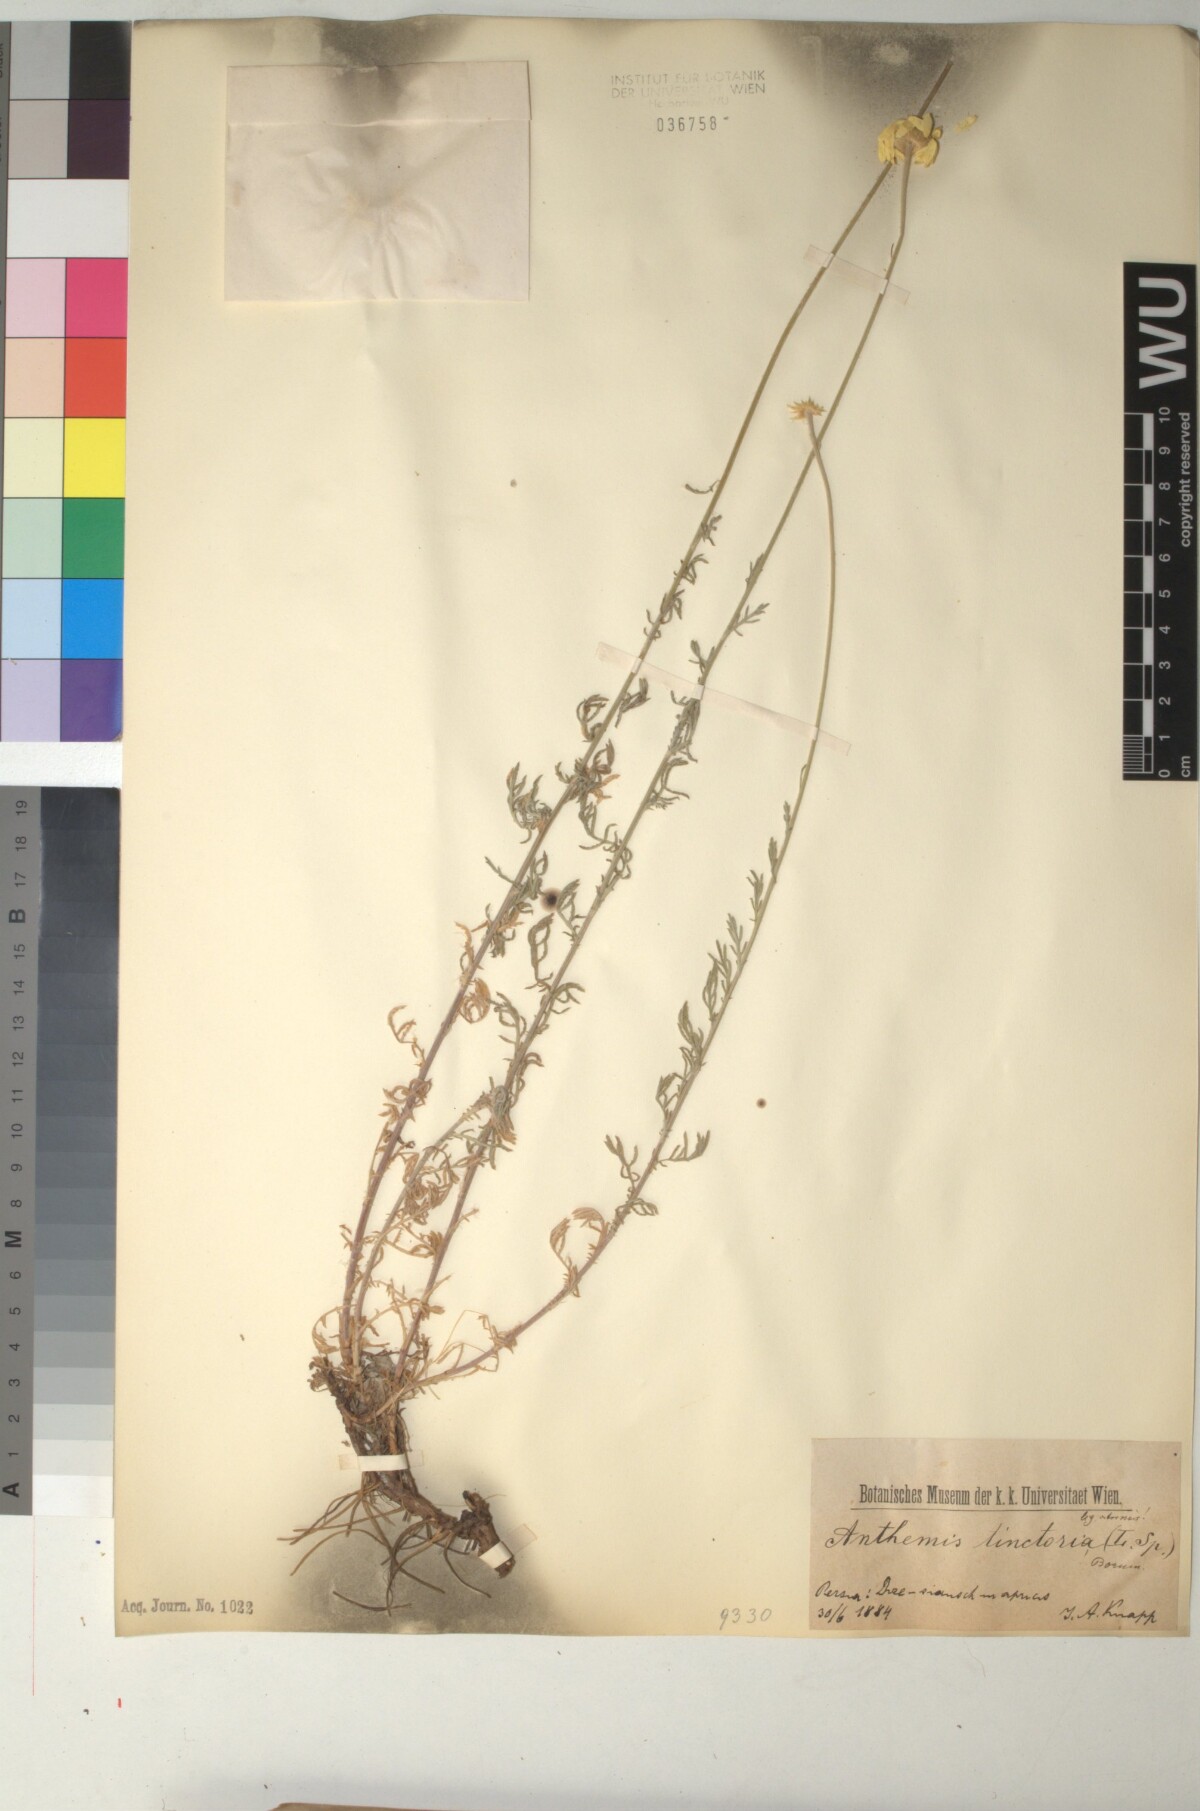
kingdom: Plantae
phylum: Tracheophyta
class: Magnoliopsida
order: Asterales
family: Asteraceae
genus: Cota
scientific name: Cota tinctoria
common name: Golden chamomile
